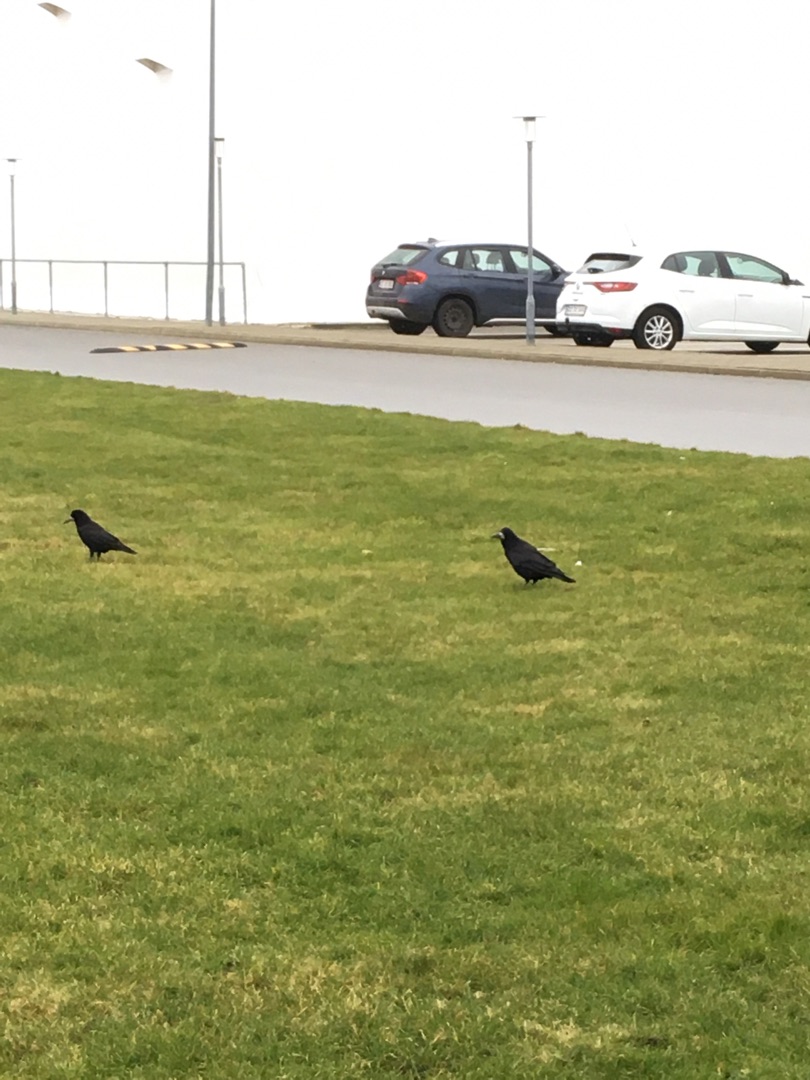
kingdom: Animalia
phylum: Chordata
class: Aves
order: Passeriformes
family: Corvidae
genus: Corvus
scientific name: Corvus frugilegus
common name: Råge
